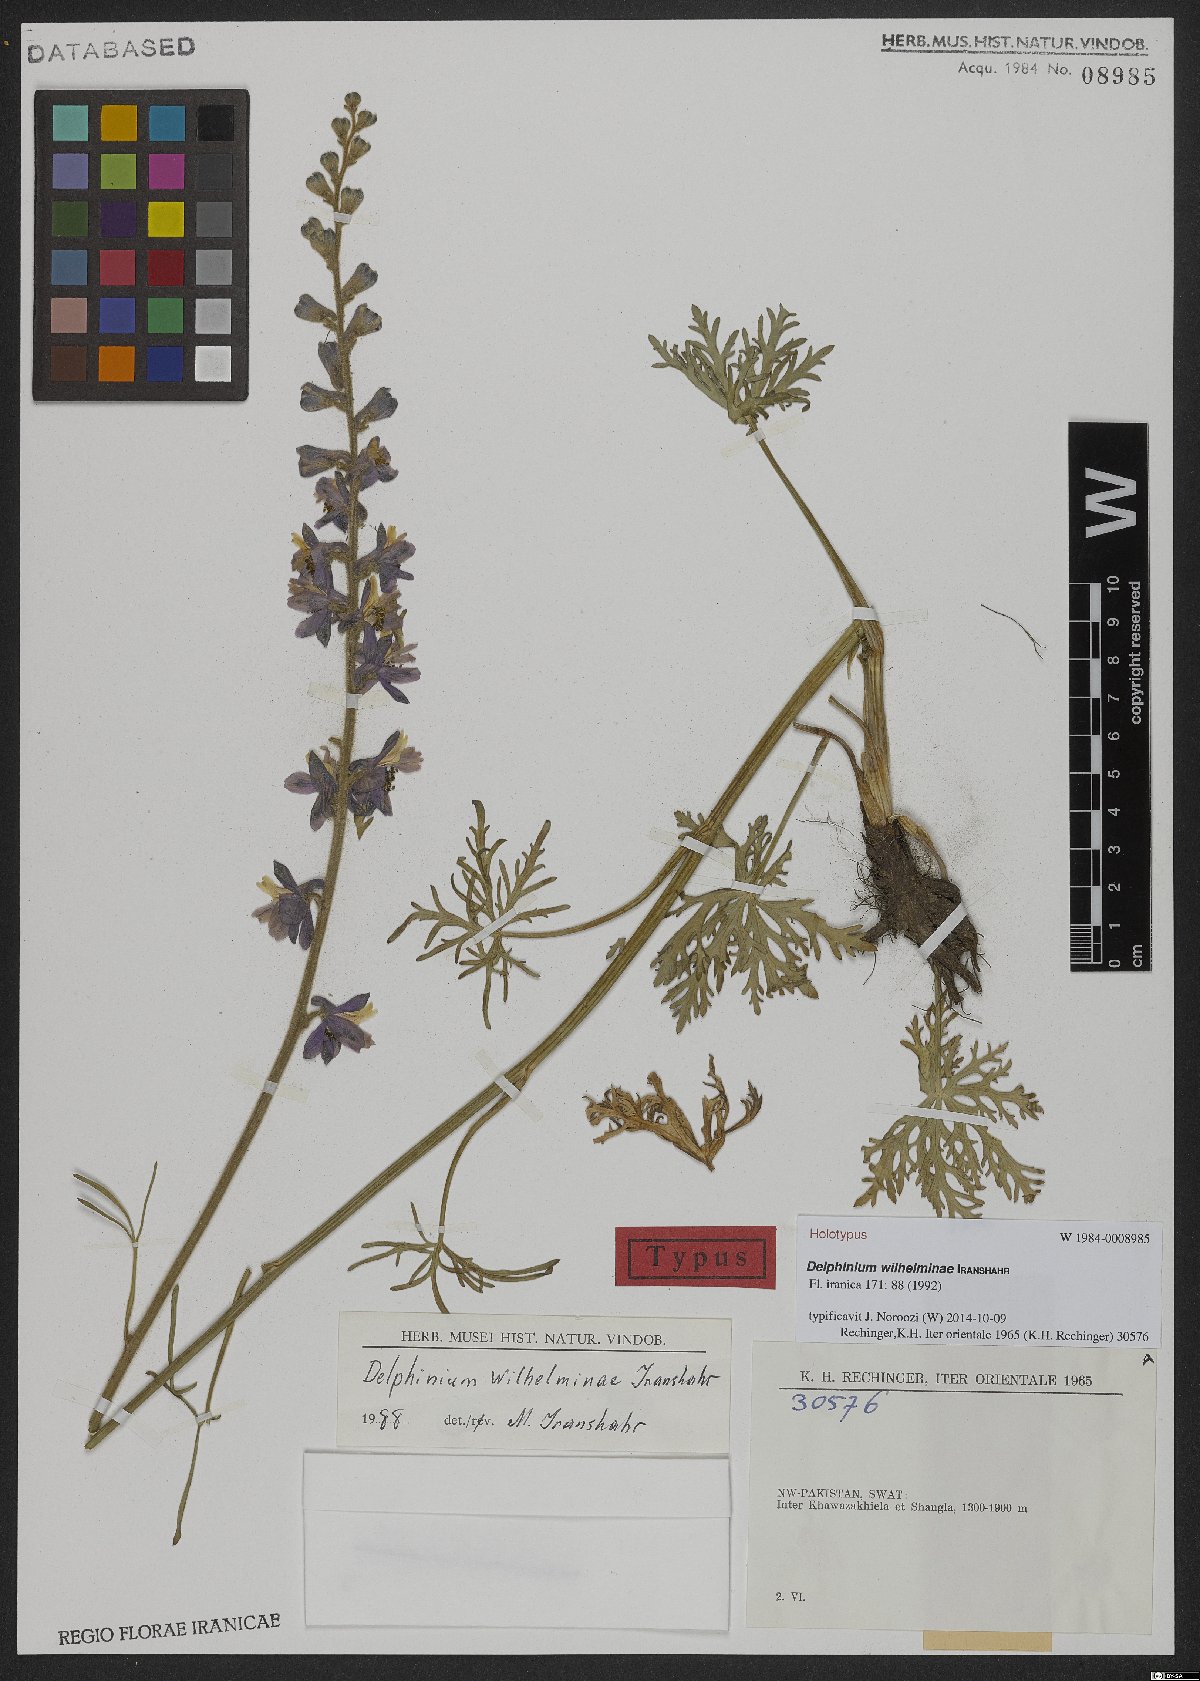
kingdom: Plantae
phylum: Tracheophyta
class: Magnoliopsida
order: Ranunculales
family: Ranunculaceae
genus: Delphinium
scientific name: Delphinium wilhelminae
